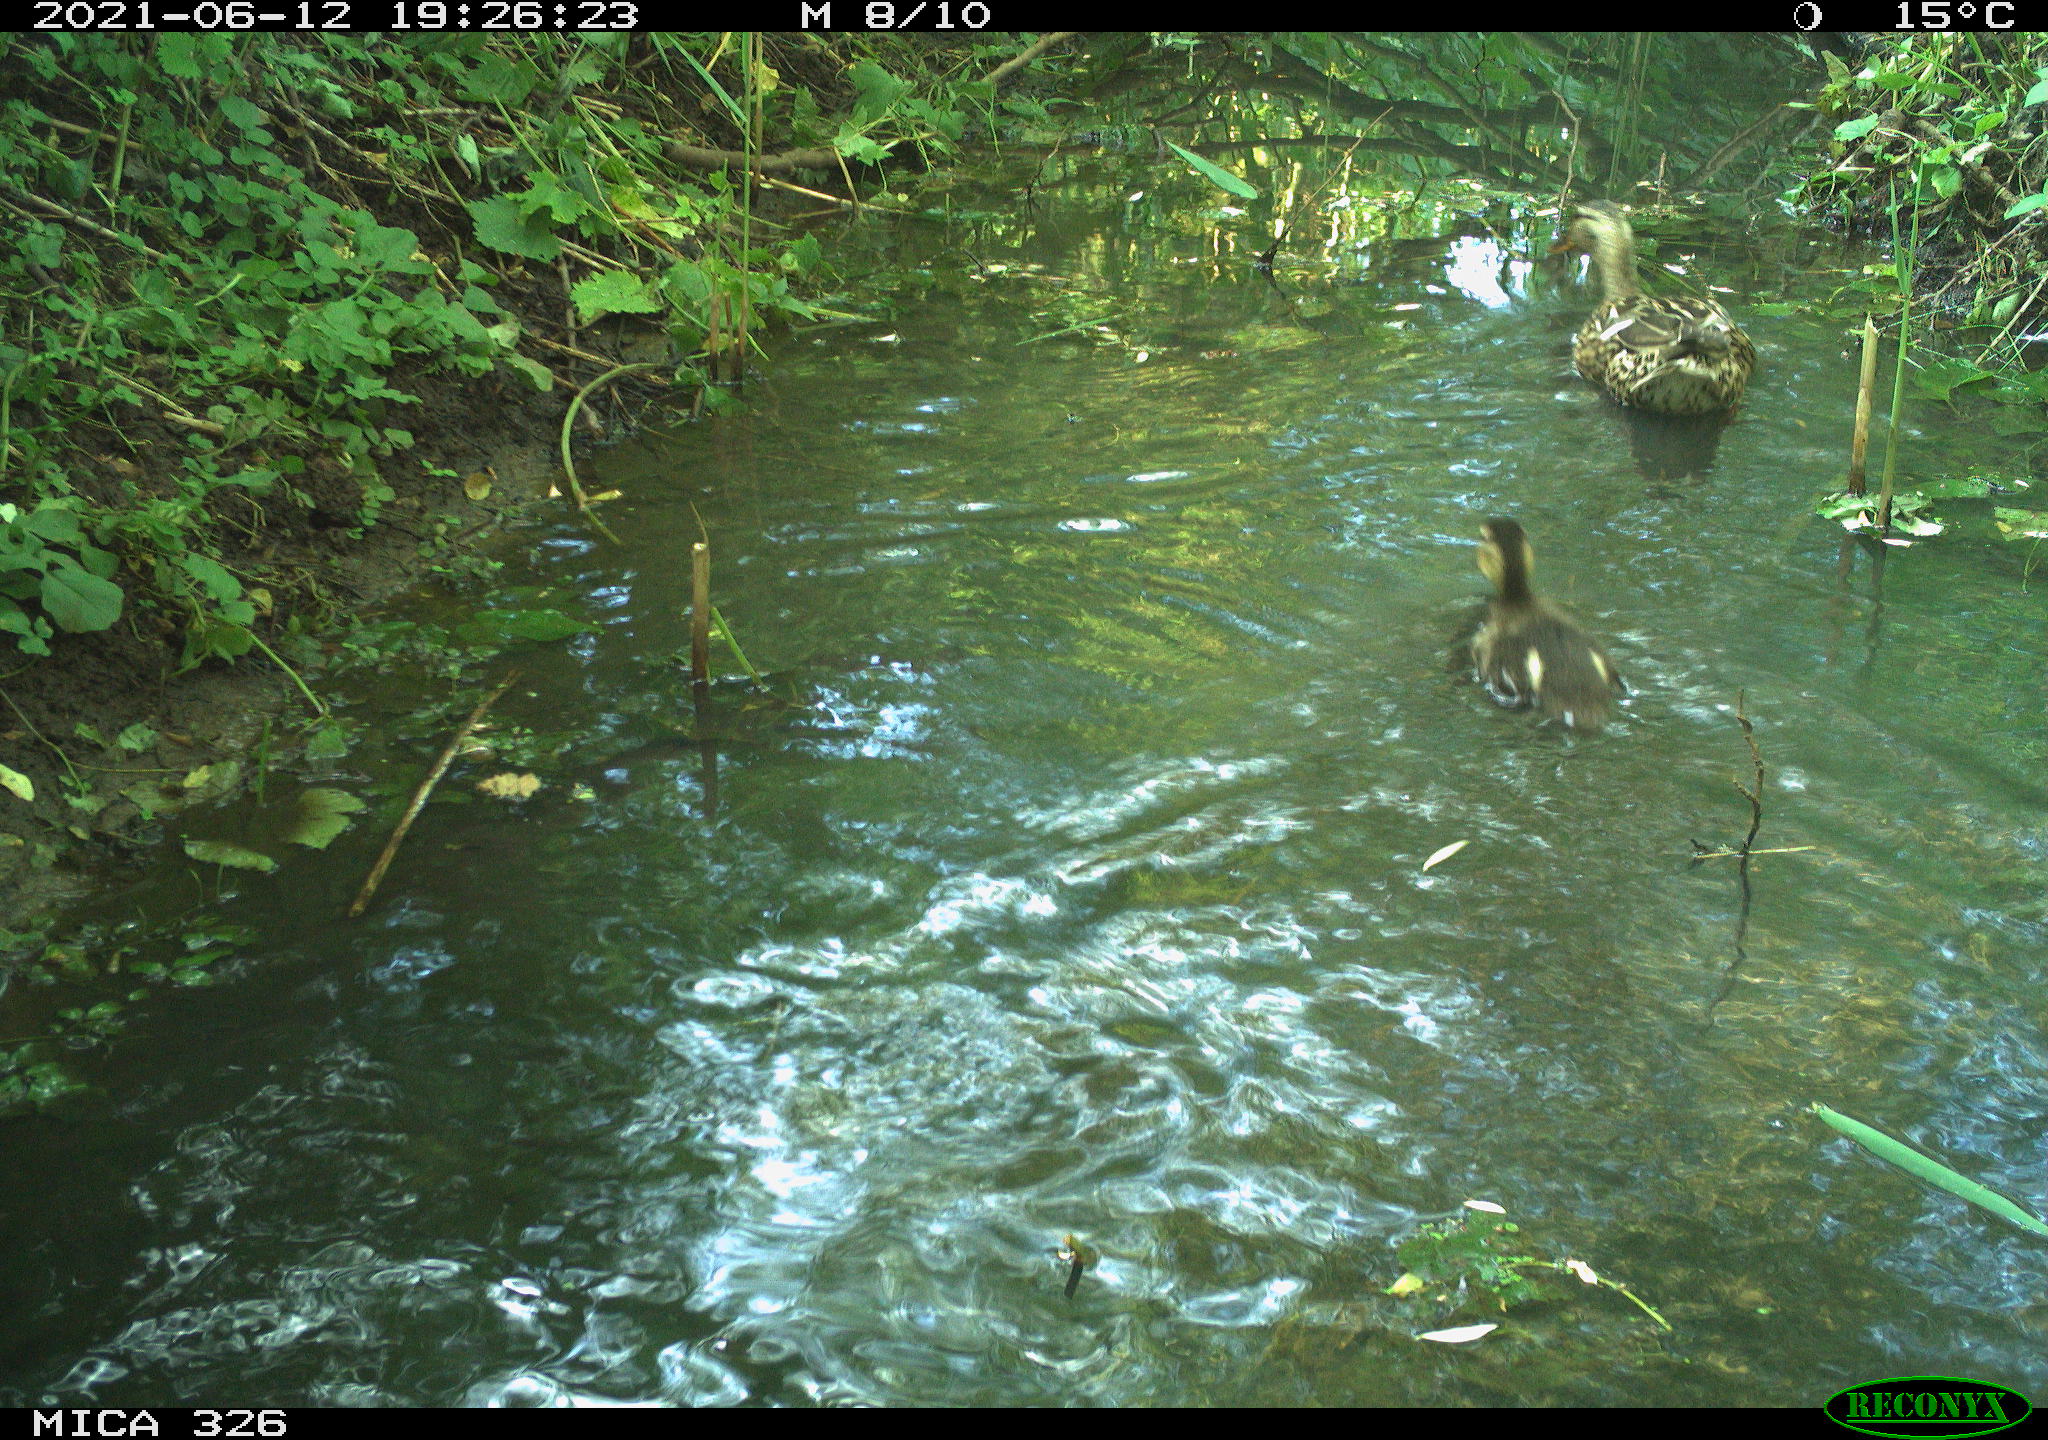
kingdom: Animalia
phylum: Chordata
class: Aves
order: Anseriformes
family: Anatidae
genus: Anas
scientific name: Anas platyrhynchos
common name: Mallard
